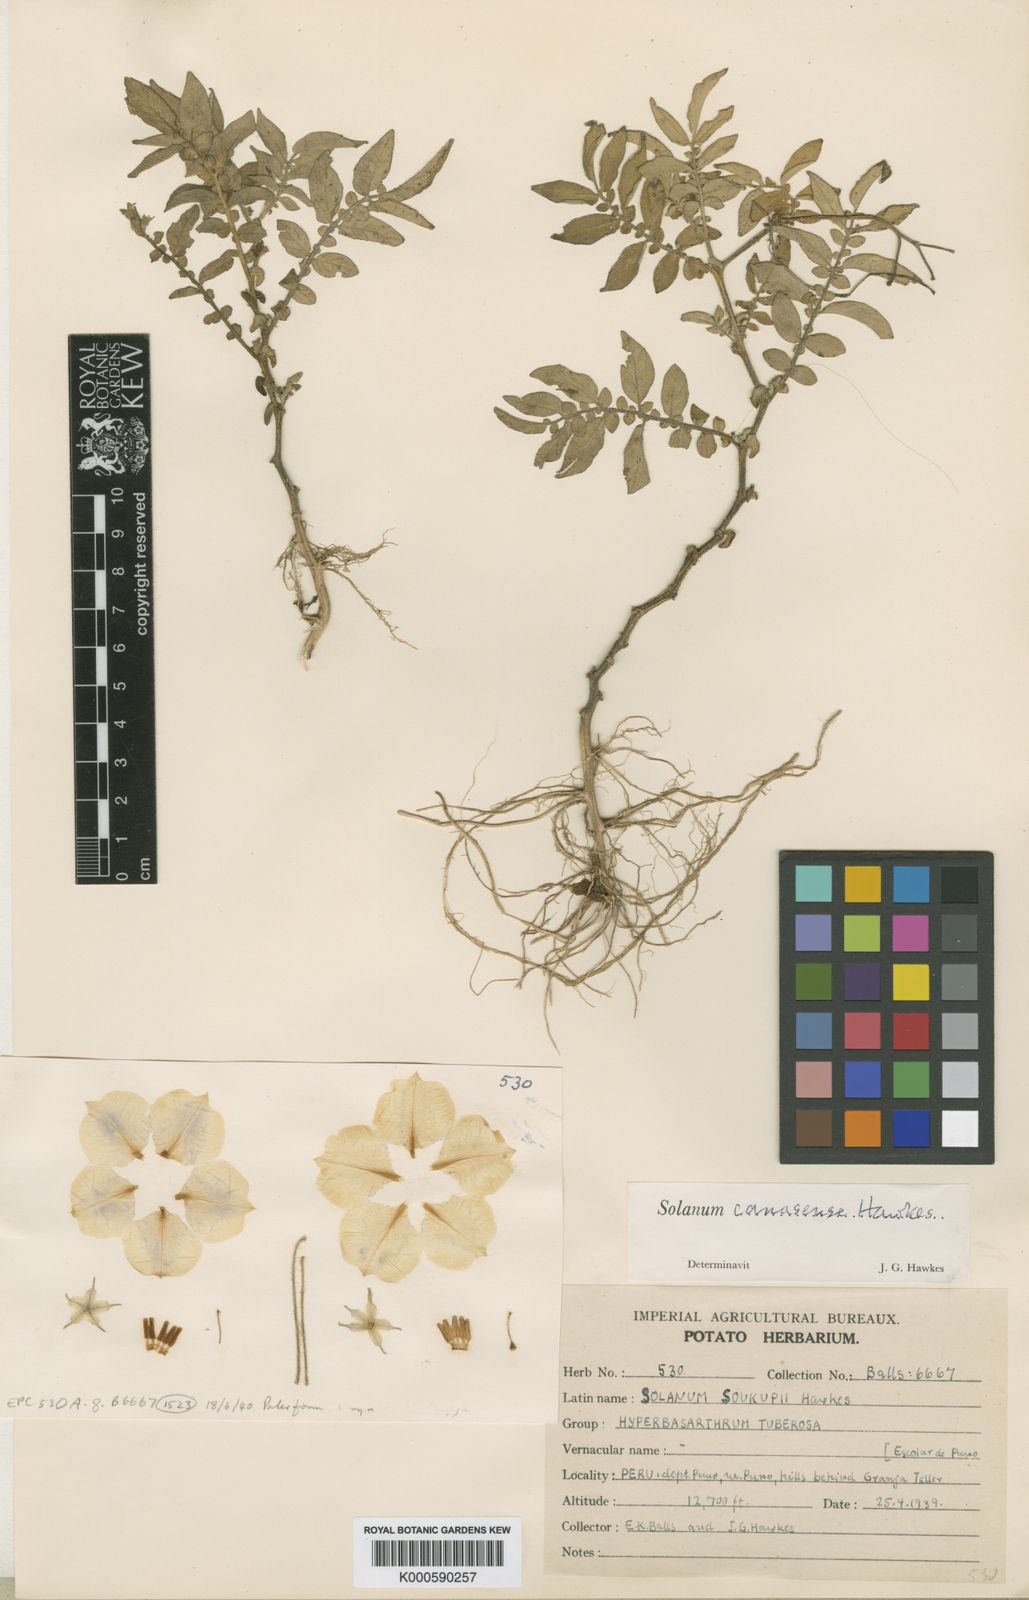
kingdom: Plantae
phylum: Tracheophyta
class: Magnoliopsida
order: Solanales
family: Solanaceae
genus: Solanum
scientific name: Solanum candolleanum
